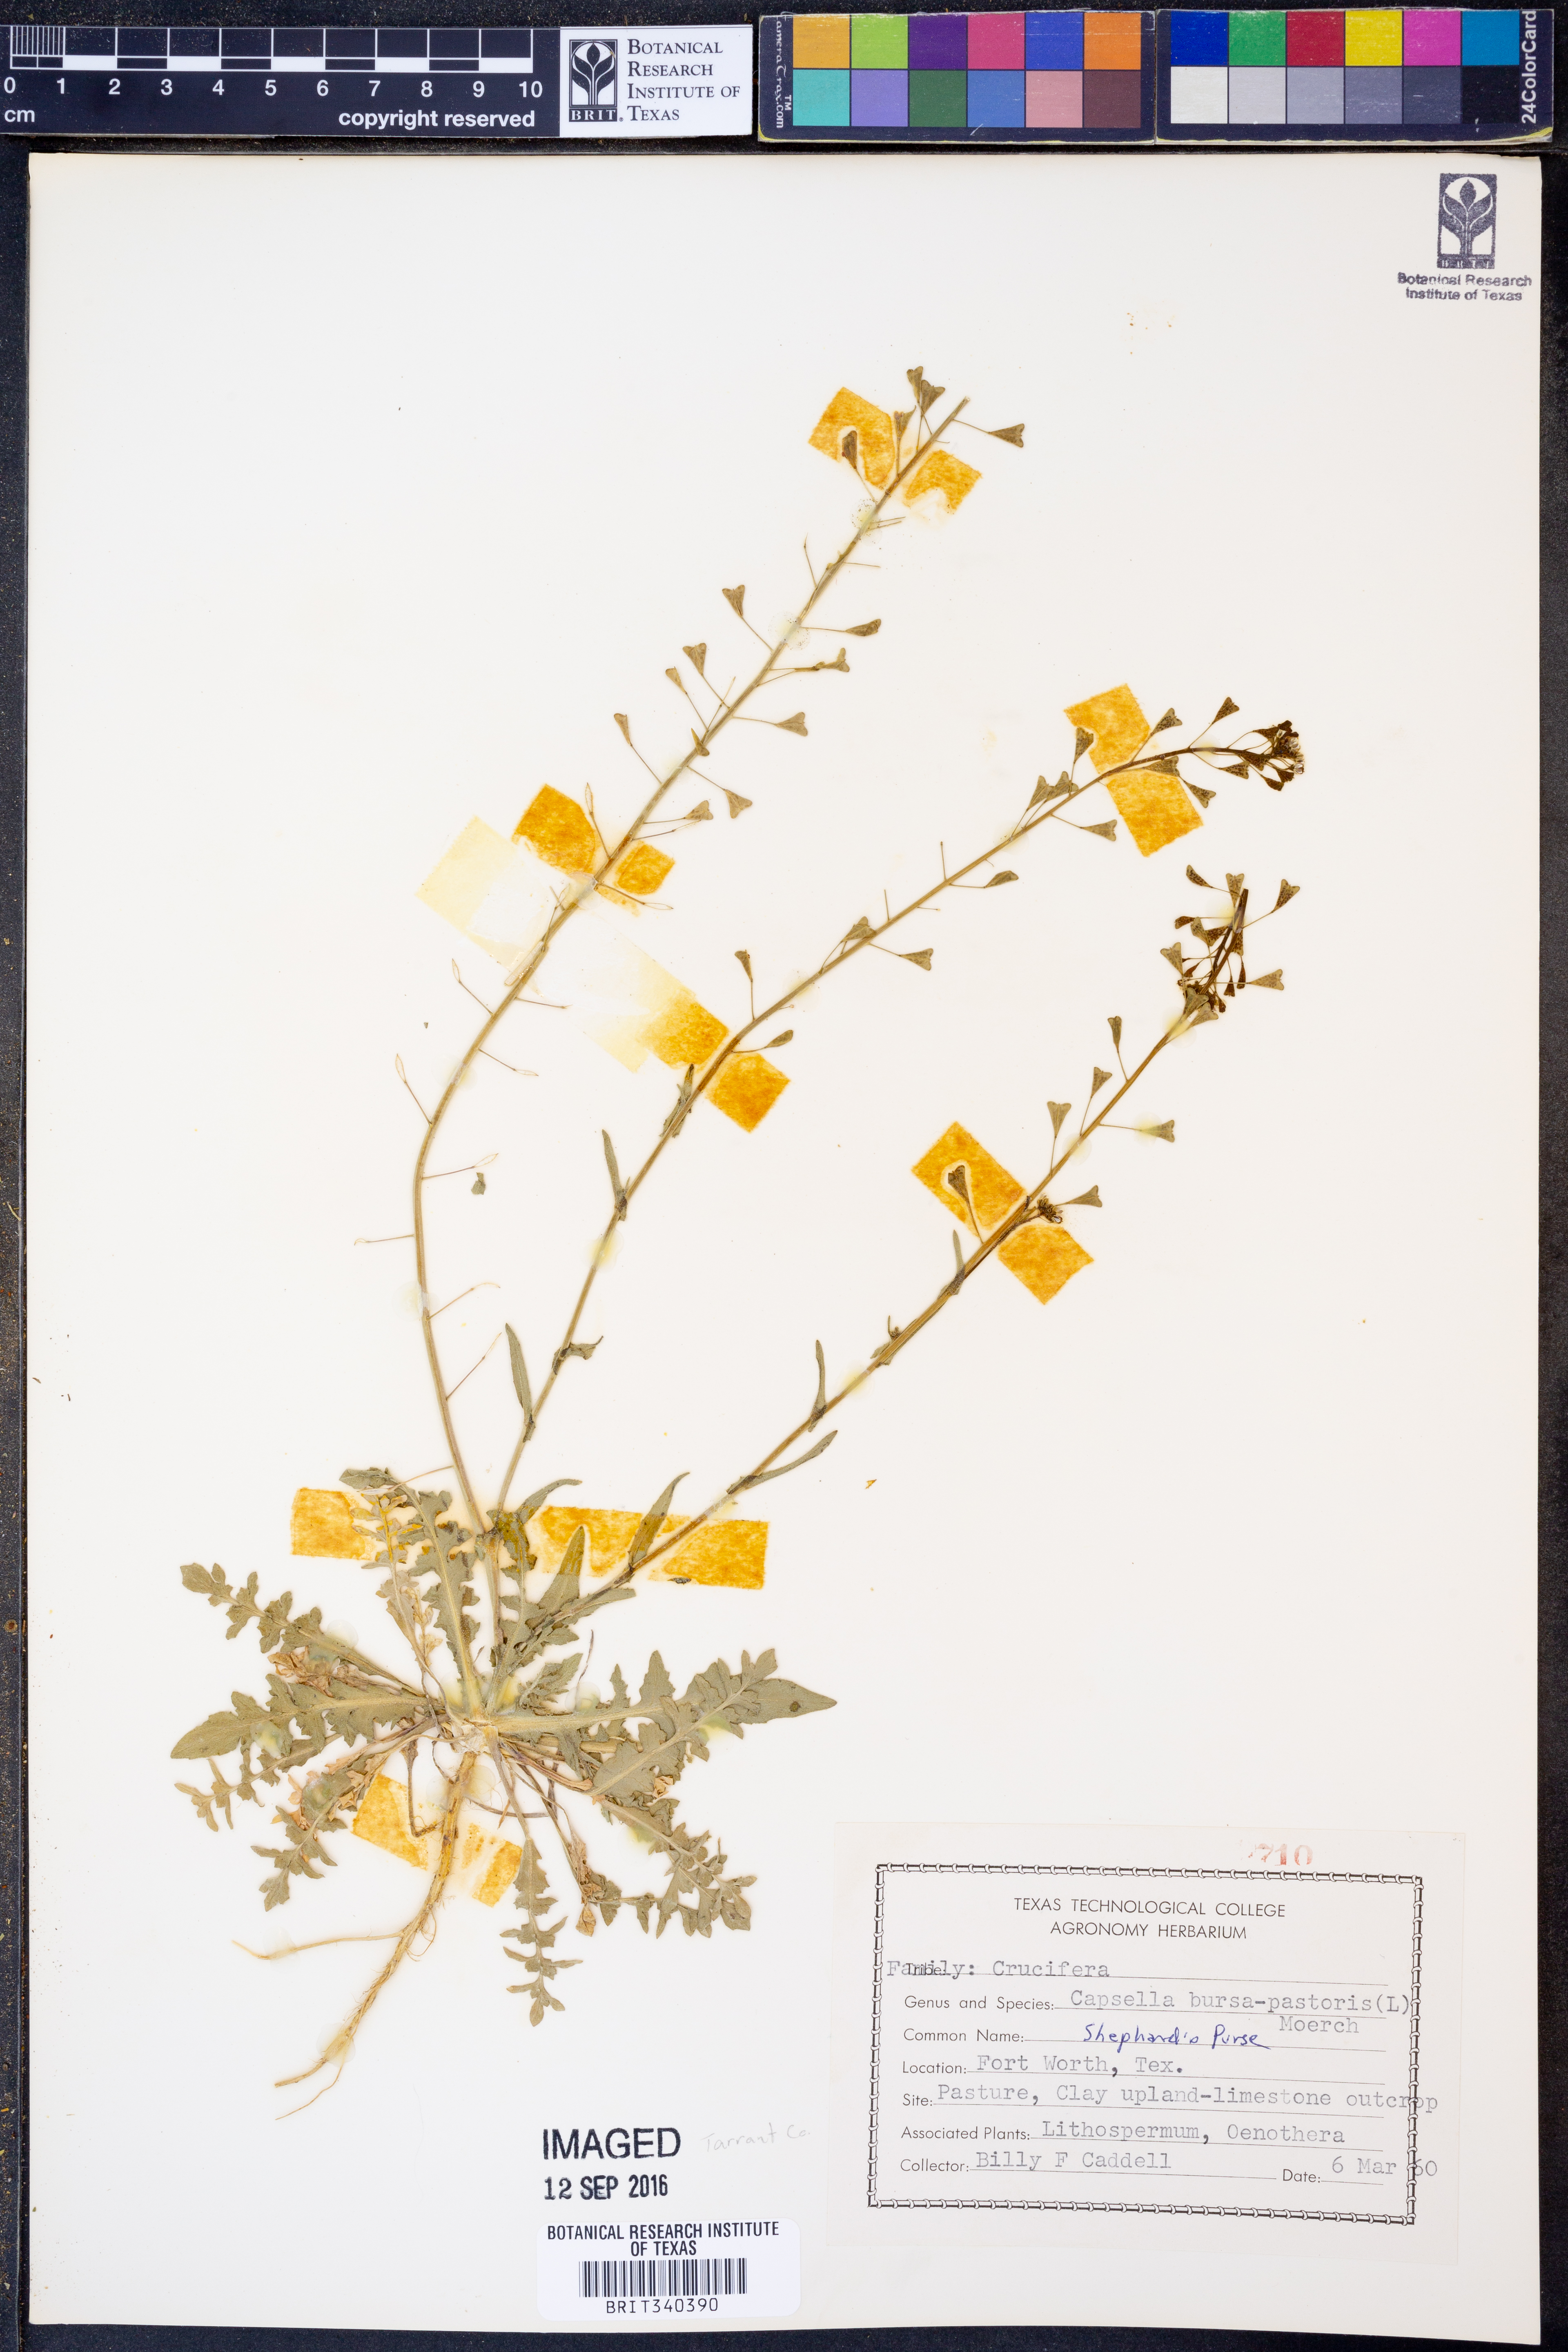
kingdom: Plantae
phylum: Tracheophyta
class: Magnoliopsida
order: Brassicales
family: Brassicaceae
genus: Capsella
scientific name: Capsella bursa-pastoris
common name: Shepherd's purse
